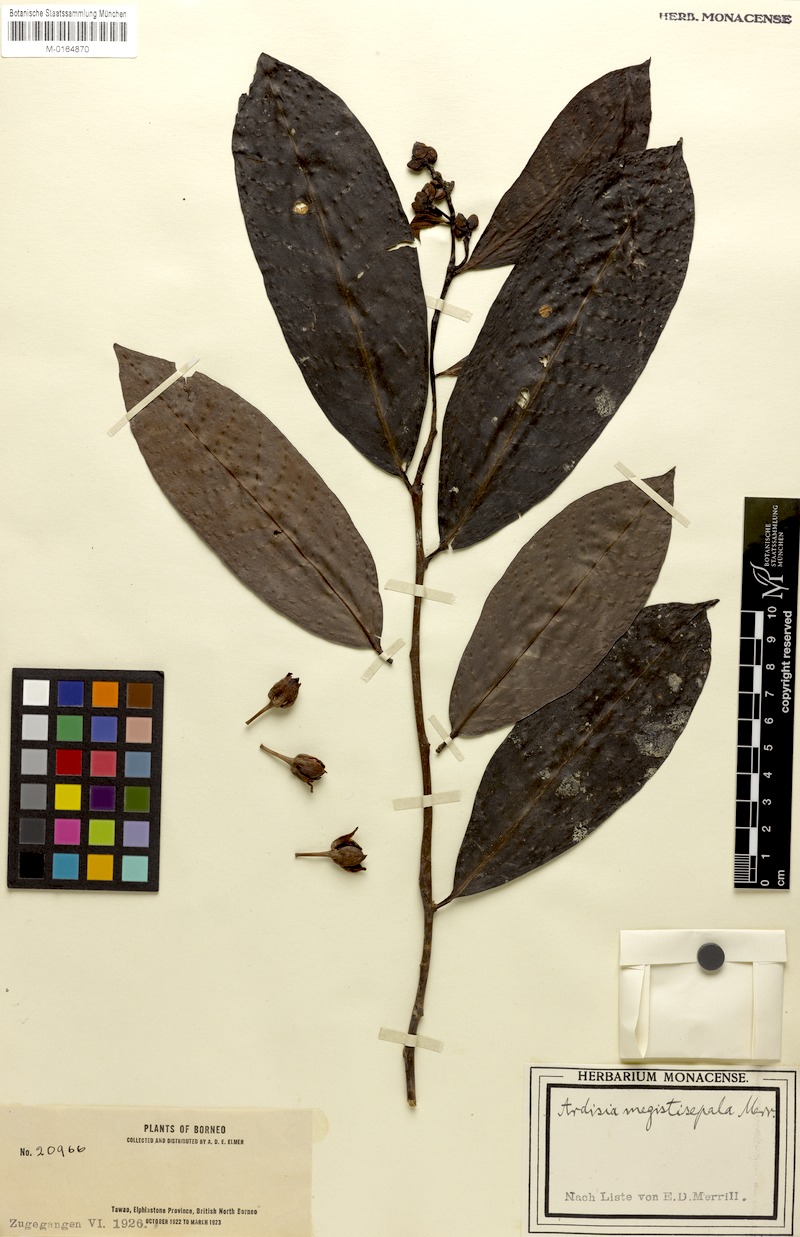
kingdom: Plantae
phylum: Tracheophyta
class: Magnoliopsida
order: Ericales
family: Primulaceae
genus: Ardisia
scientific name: Ardisia megistosepala
